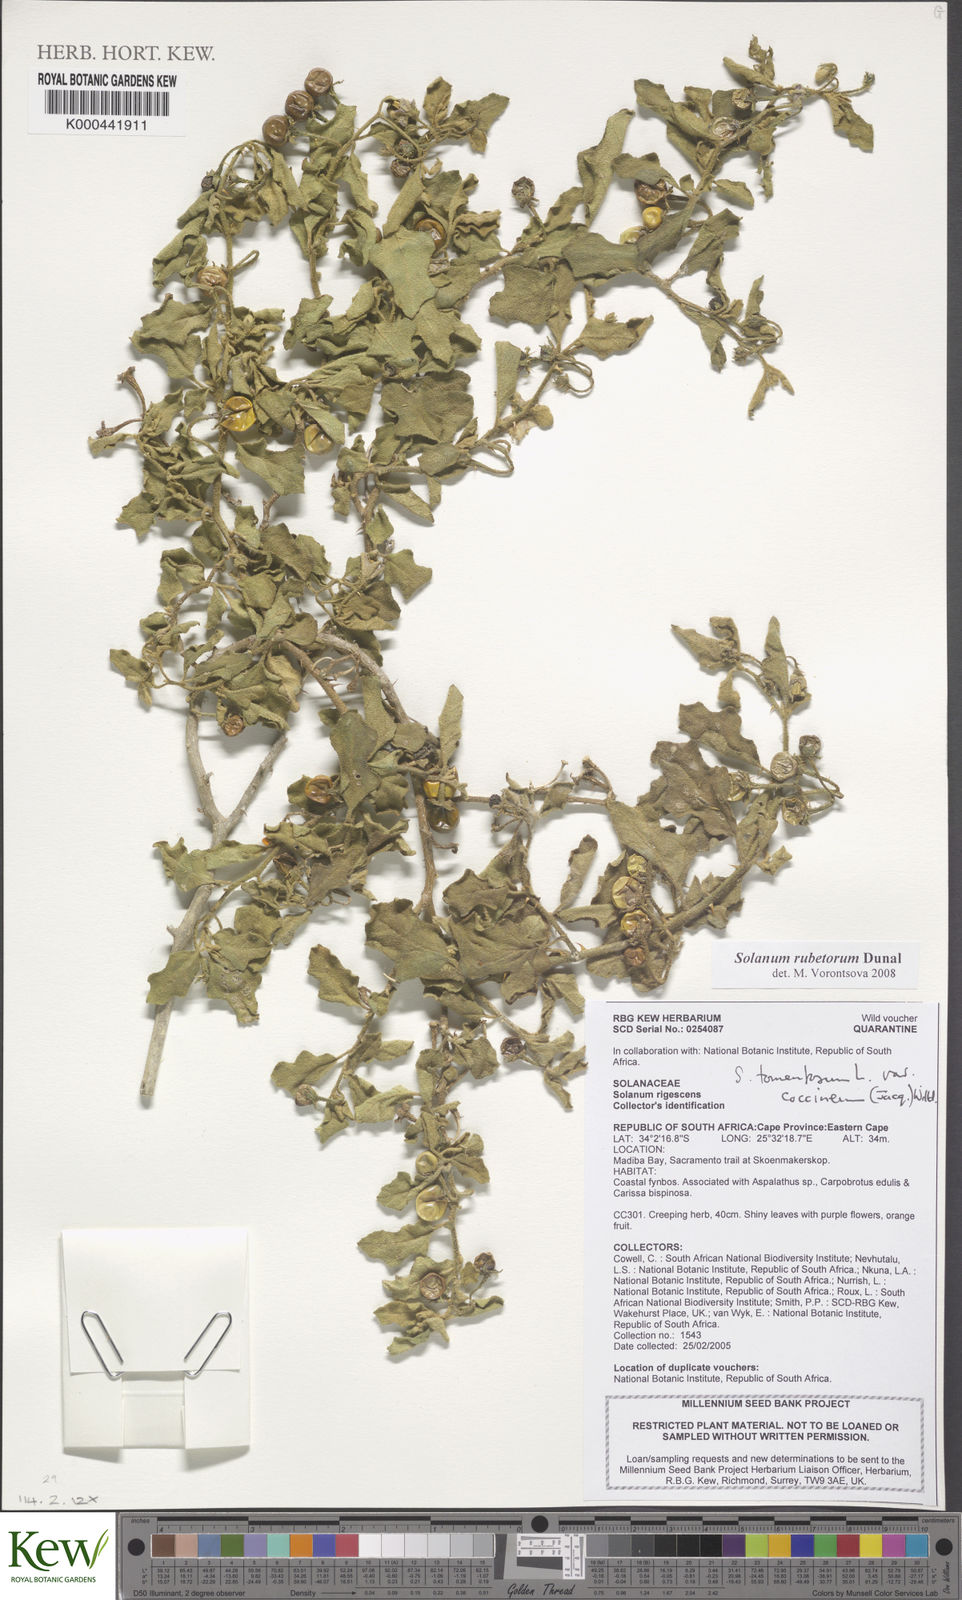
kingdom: Plantae
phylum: Tracheophyta
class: Magnoliopsida
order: Solanales
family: Solanaceae
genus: Solanum
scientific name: Solanum rubetorum
